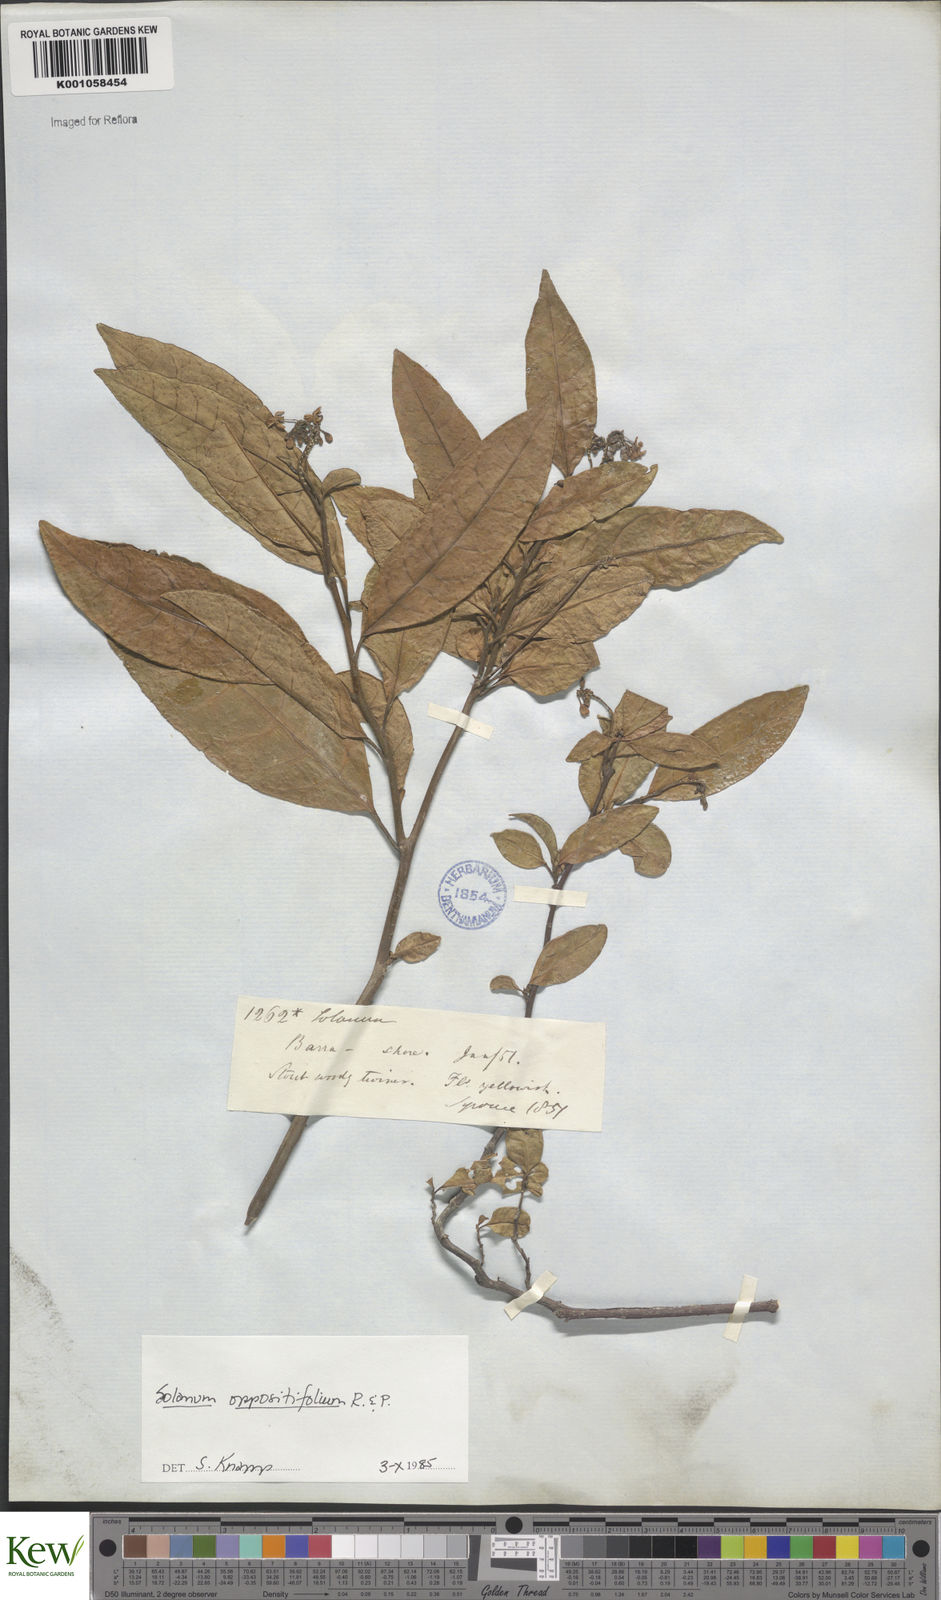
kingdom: Plantae
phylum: Tracheophyta
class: Magnoliopsida
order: Solanales
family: Solanaceae
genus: Solanum
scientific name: Solanum oppositifolium
